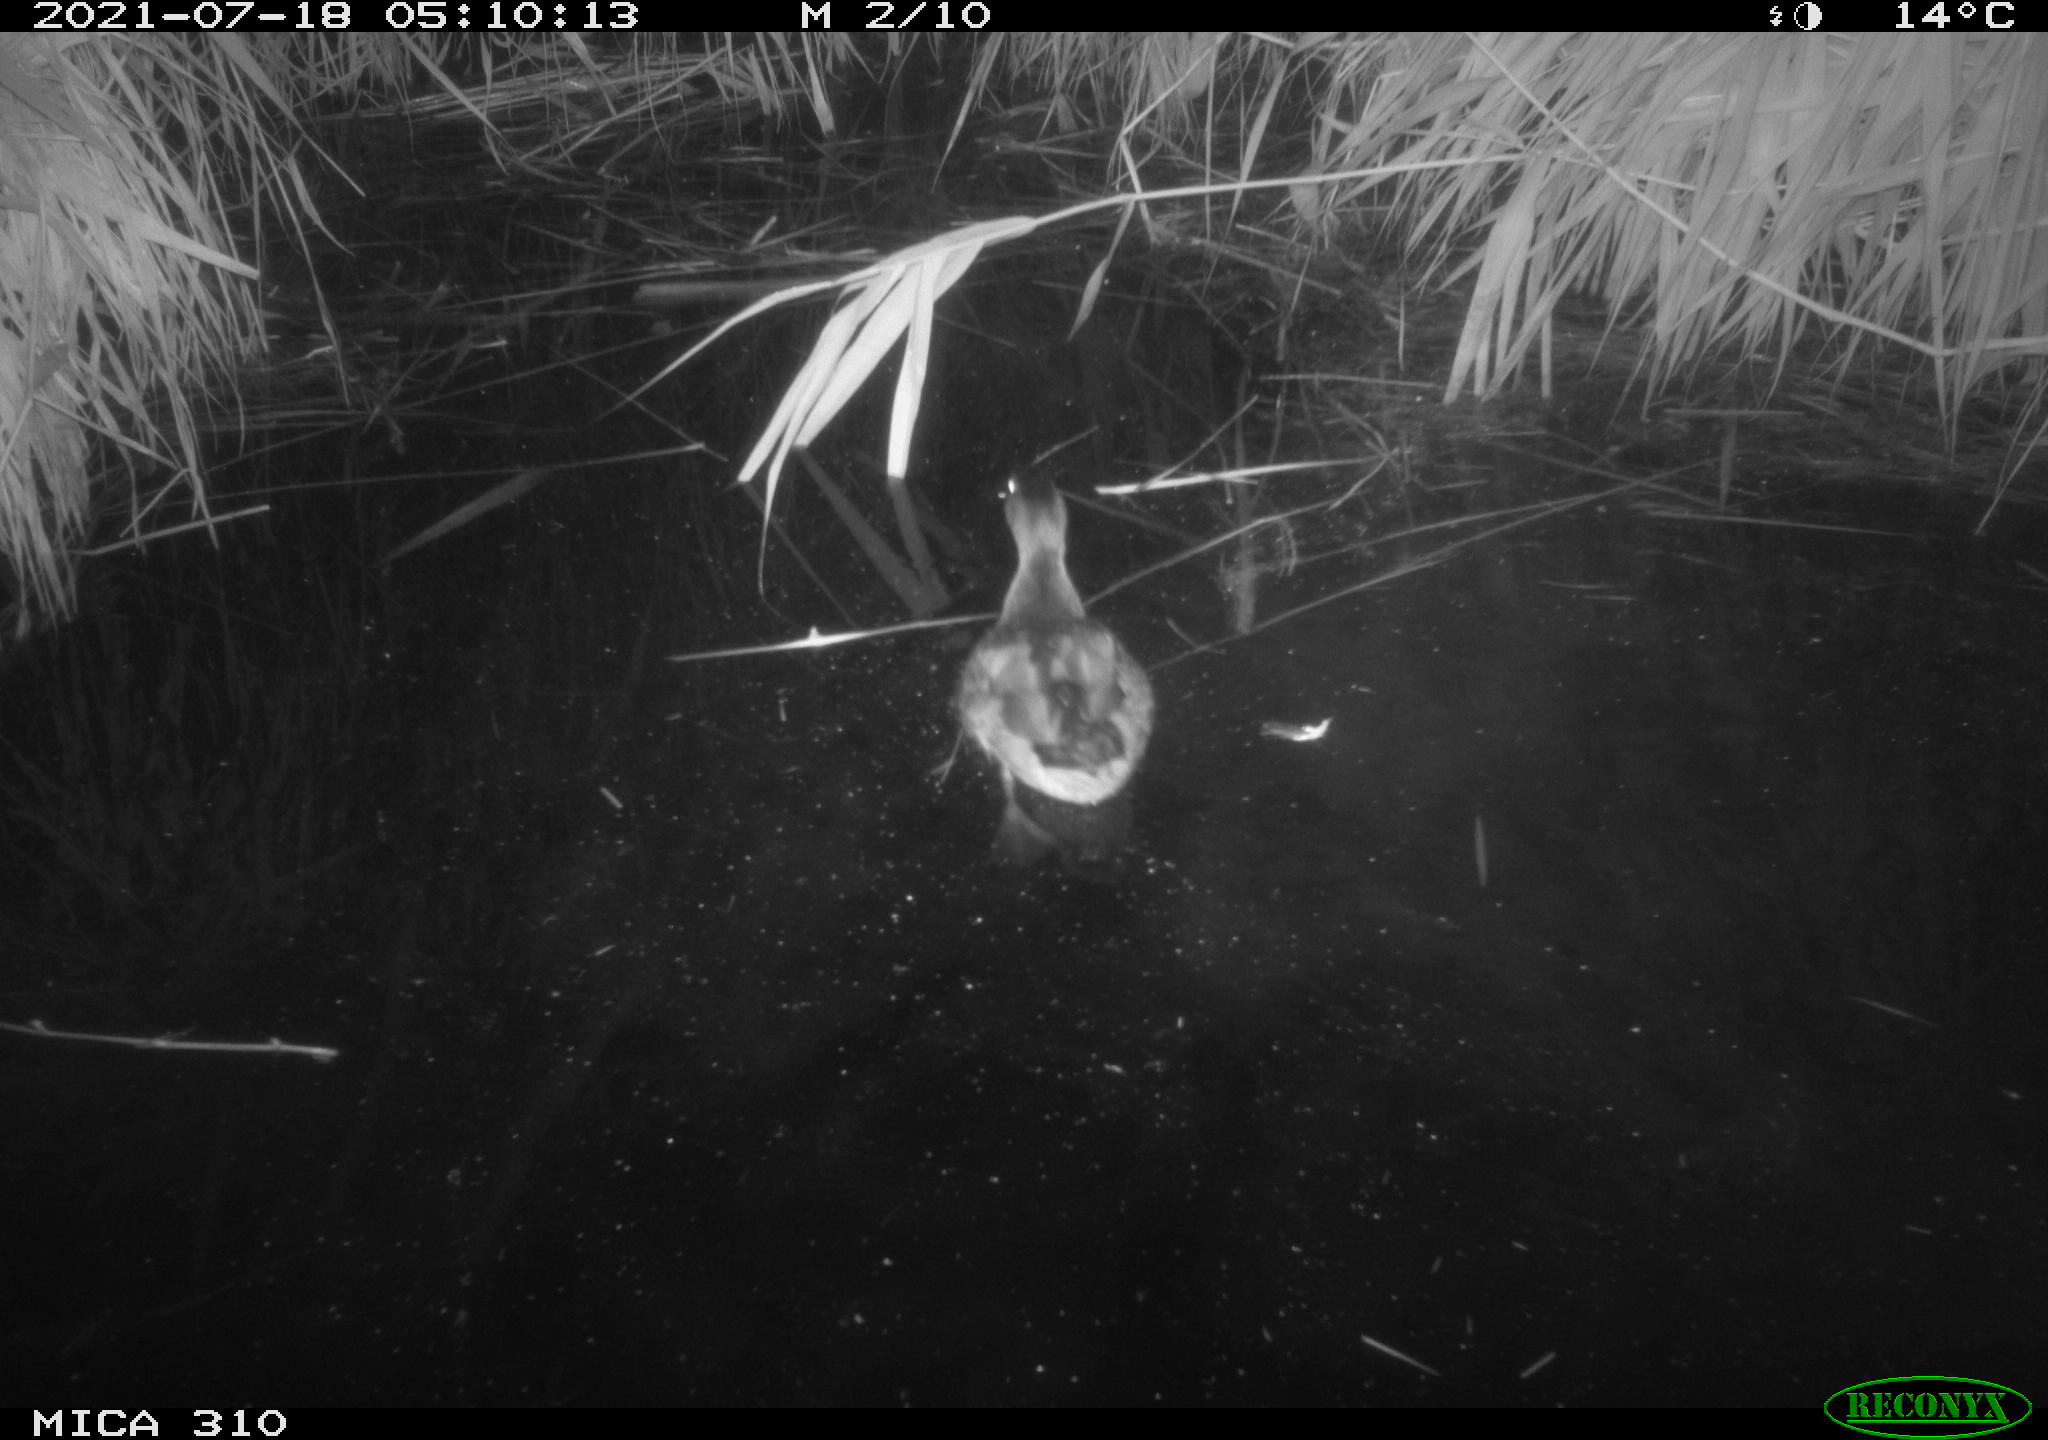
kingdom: Animalia
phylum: Chordata
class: Aves
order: Anseriformes
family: Anatidae
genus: Anas
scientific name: Anas platyrhynchos
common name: Mallard
